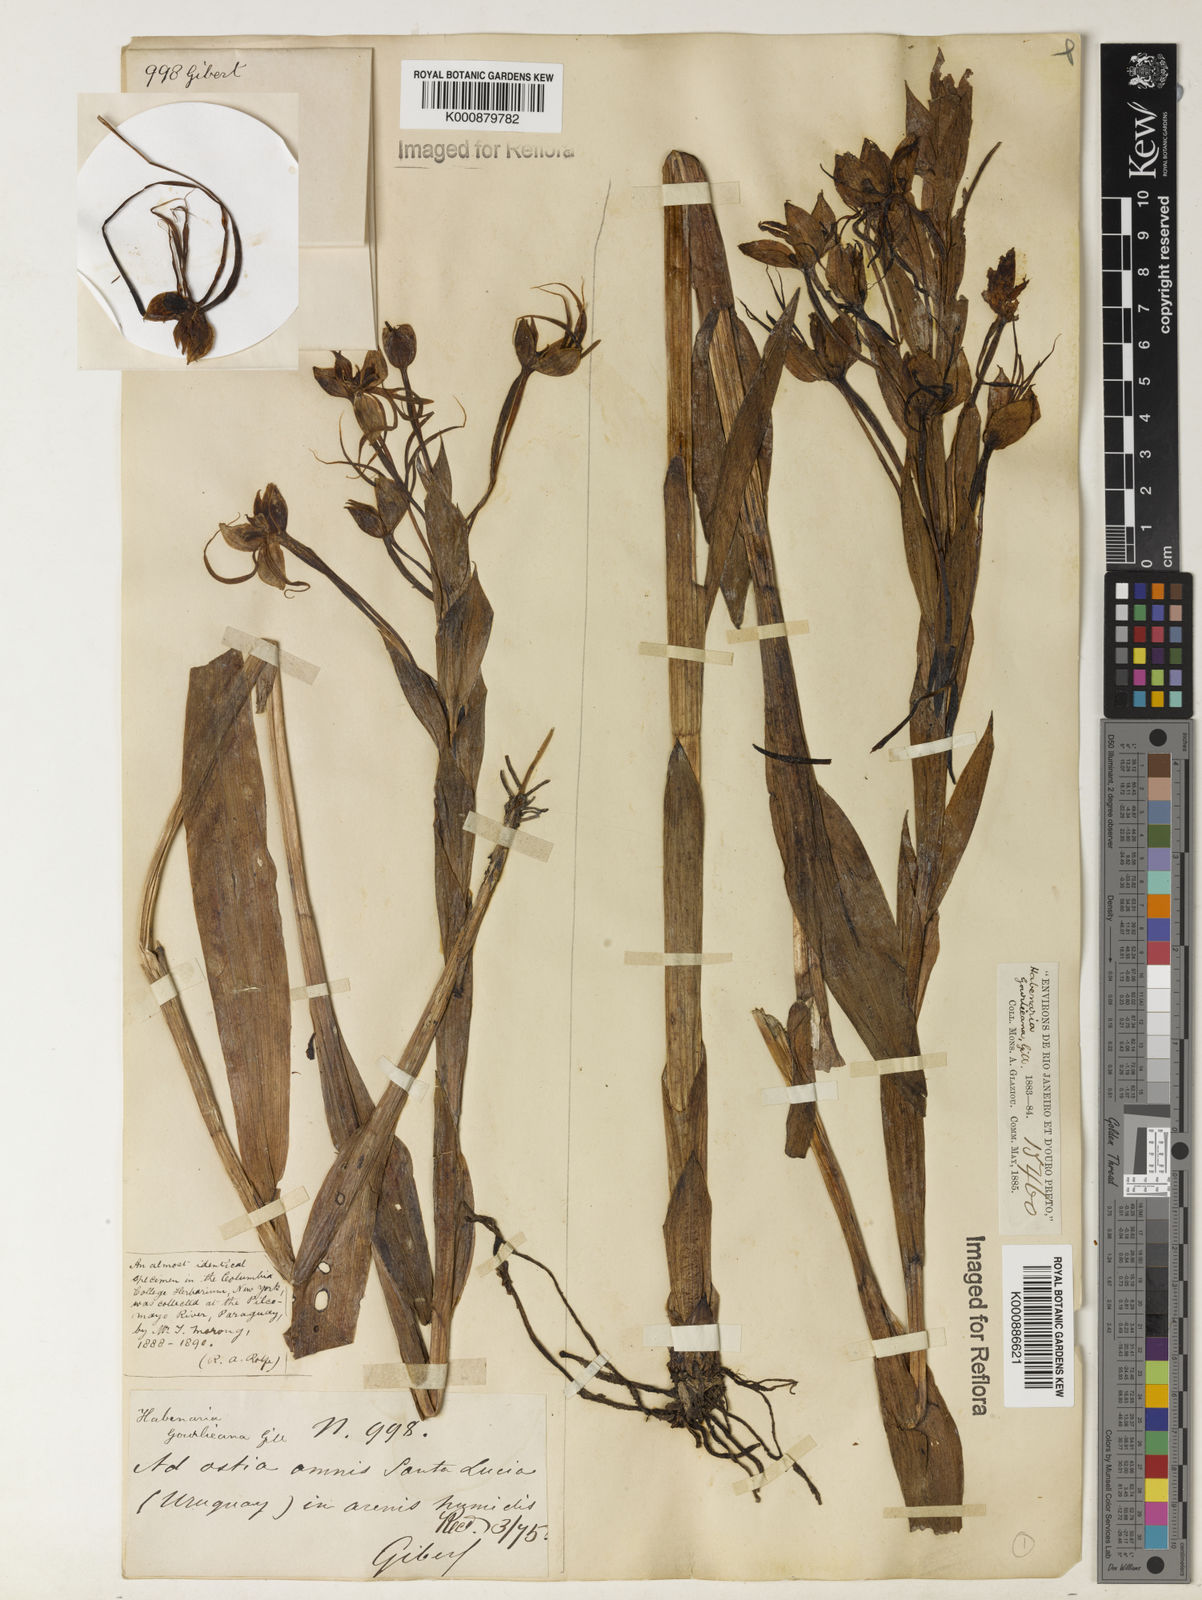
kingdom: Plantae
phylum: Tracheophyta
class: Liliopsida
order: Asparagales
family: Orchidaceae
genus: Habenaria
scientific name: Habenaria gourlieana
